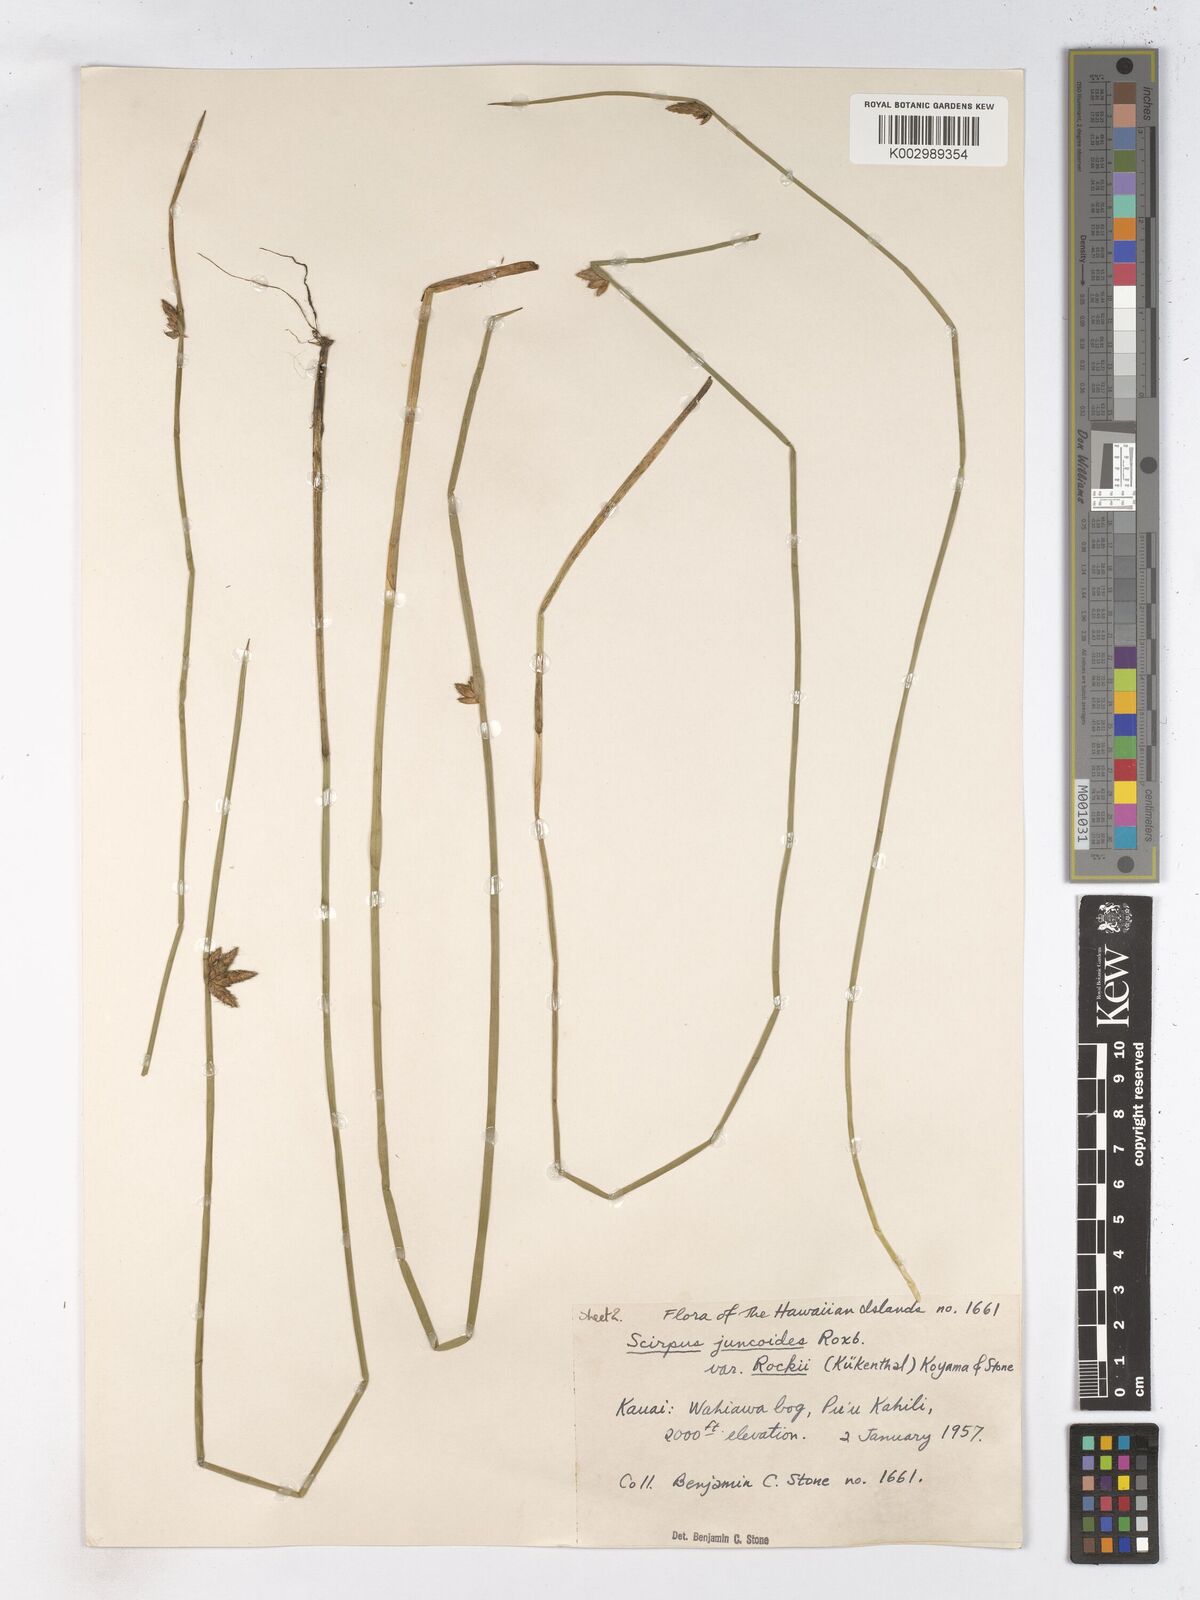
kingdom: Plantae
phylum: Tracheophyta
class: Liliopsida
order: Poales
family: Cyperaceae
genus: Schoenoplectiella
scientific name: Schoenoplectiella juncoides
